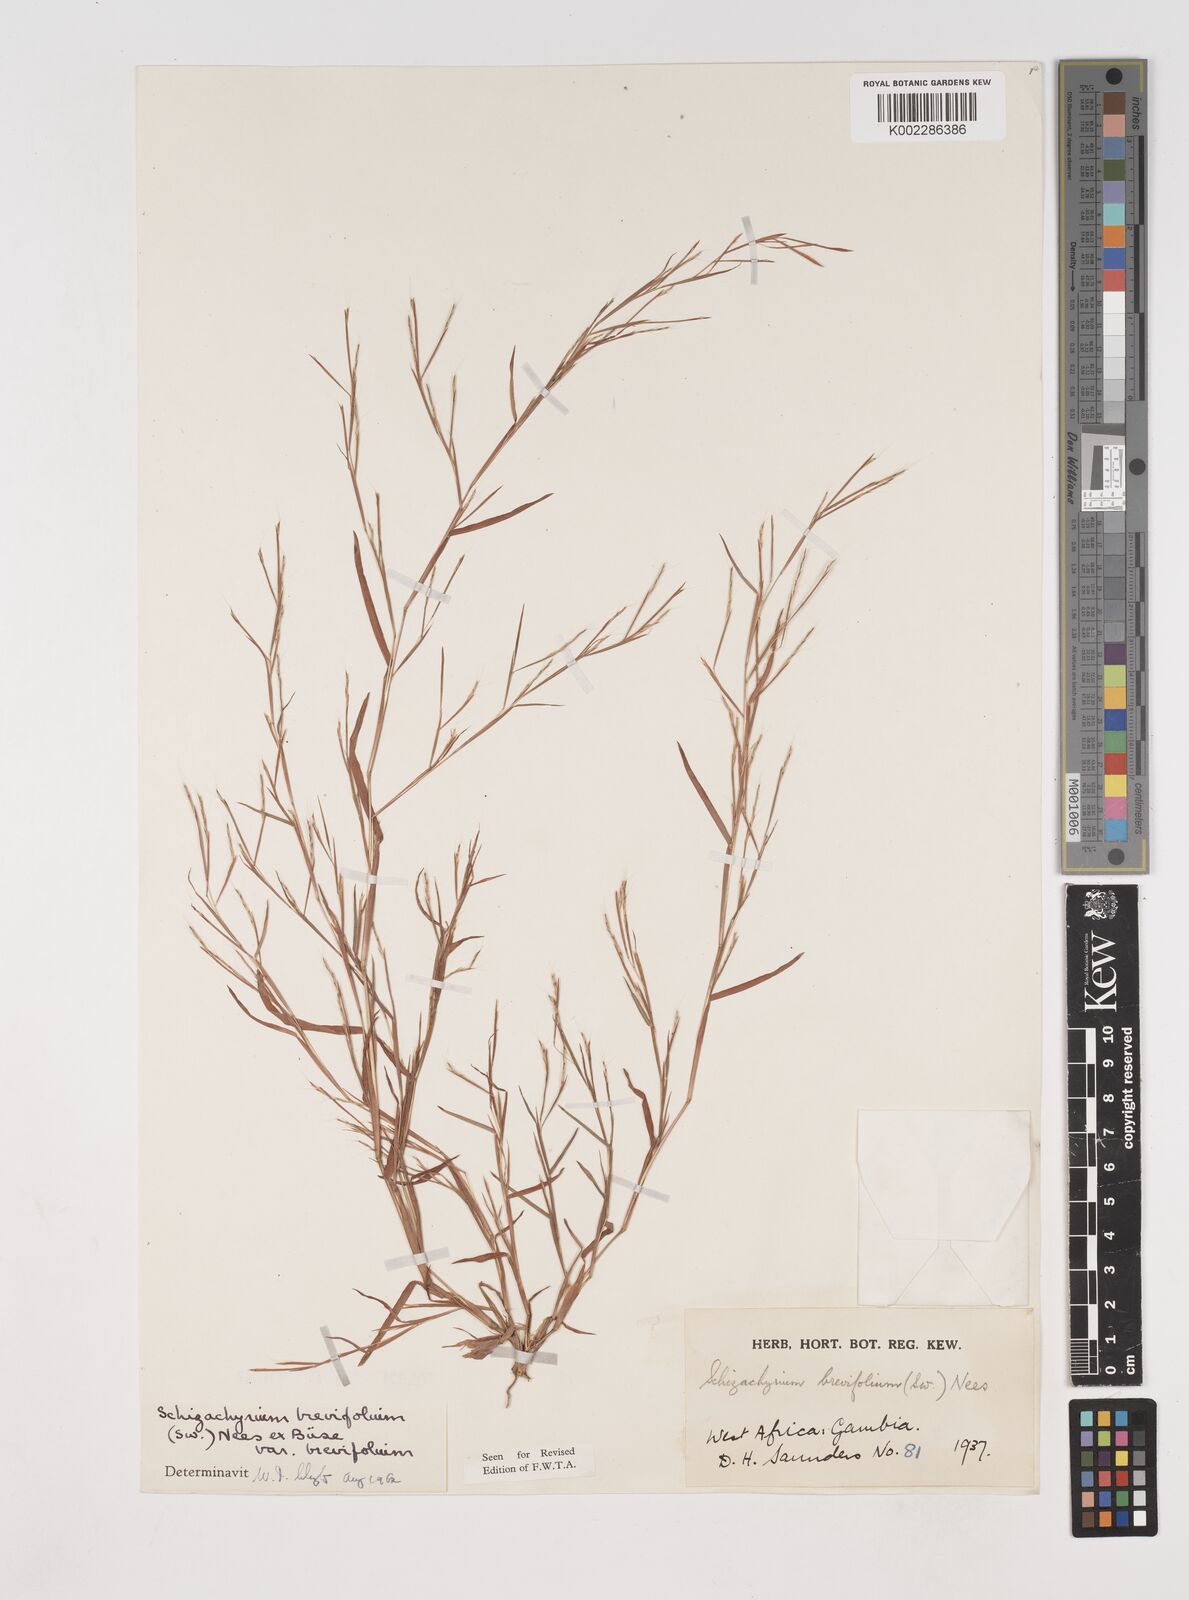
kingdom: Plantae
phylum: Tracheophyta
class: Liliopsida
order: Poales
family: Poaceae
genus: Schizachyrium
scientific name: Schizachyrium brevifolium
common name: Serillo dulce
